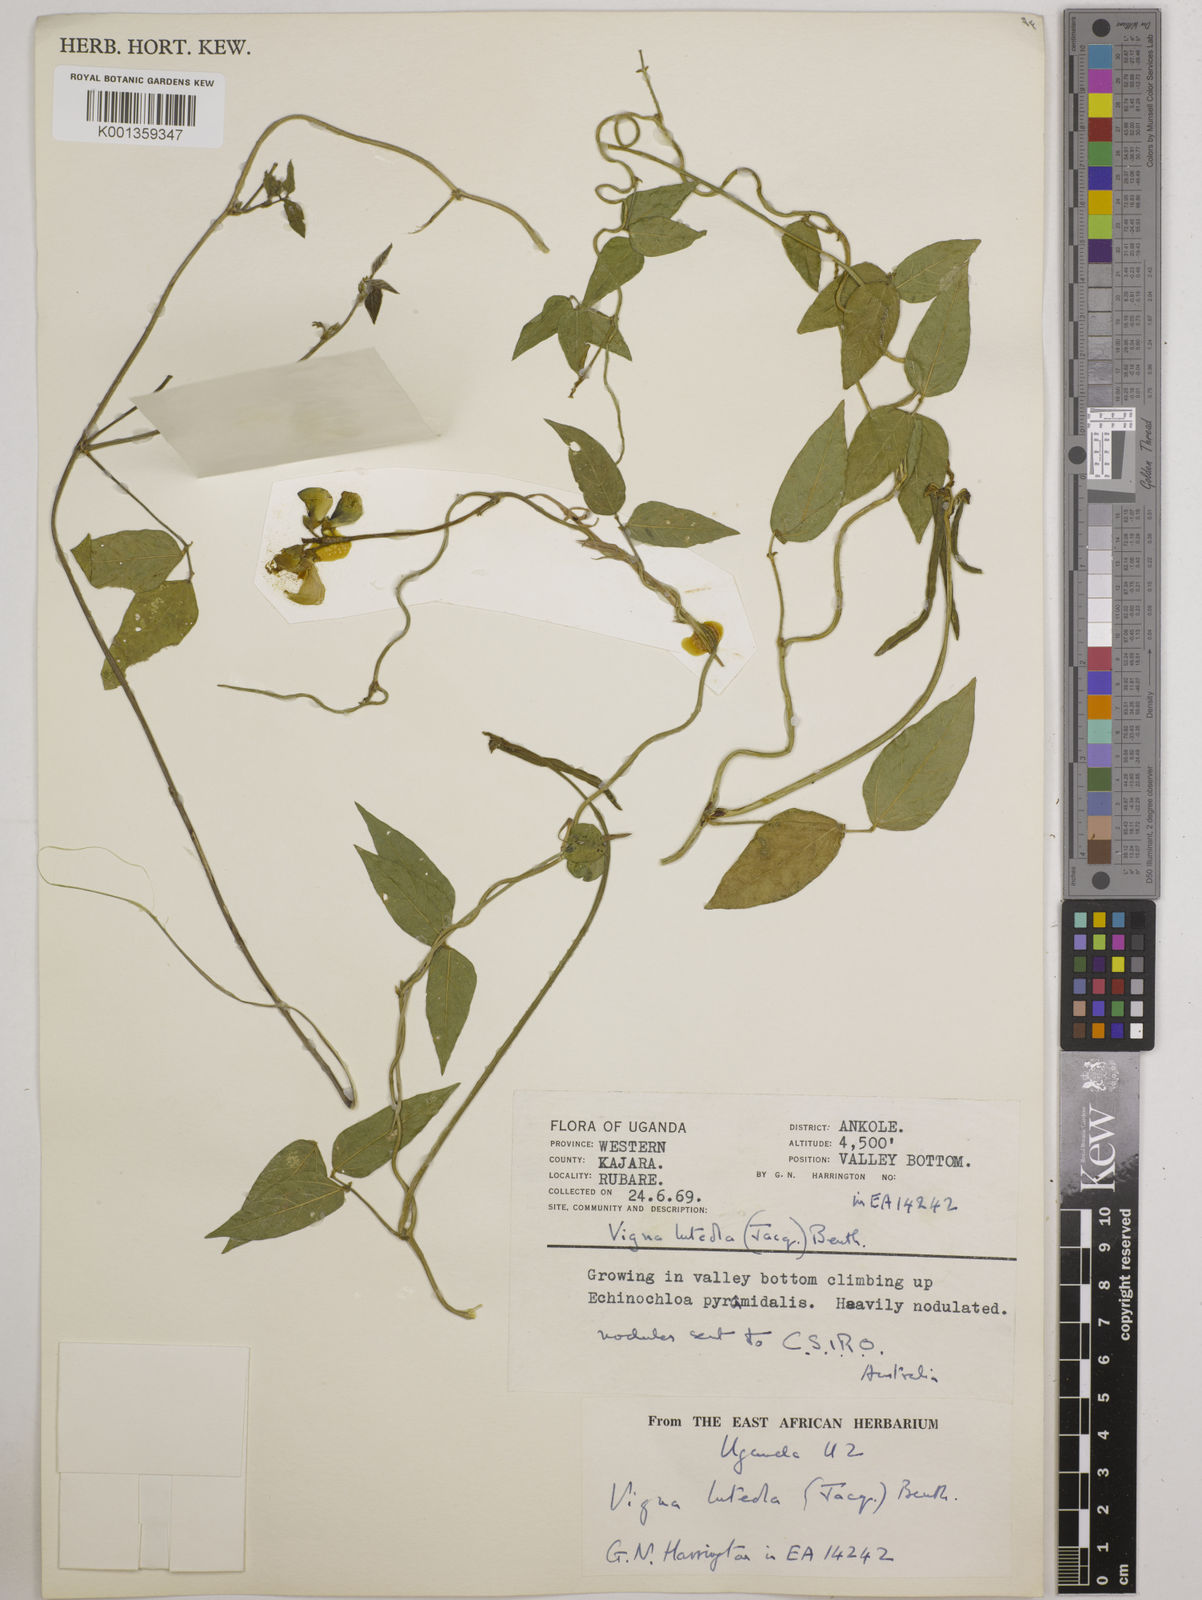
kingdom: Plantae
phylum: Tracheophyta
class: Magnoliopsida
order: Fabales
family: Fabaceae
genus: Vigna
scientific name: Vigna luteola
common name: Hairypod cowpea
